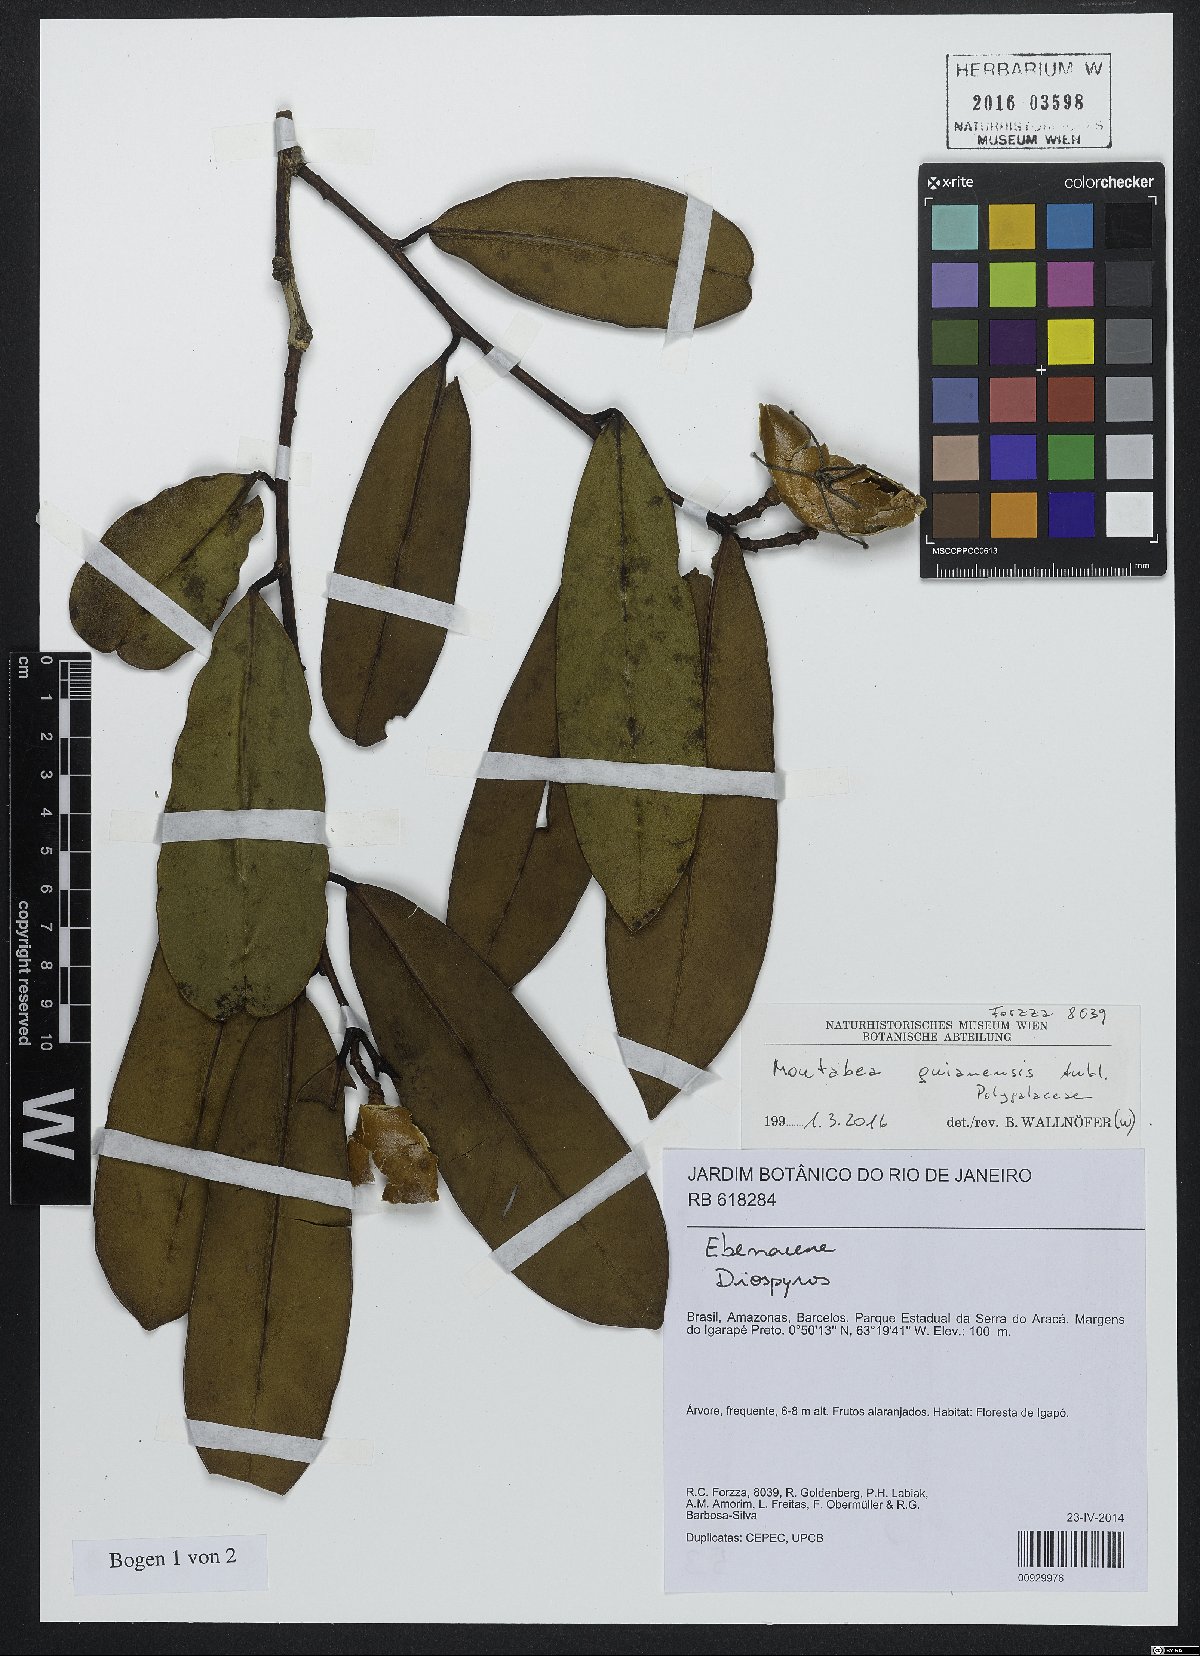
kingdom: Plantae
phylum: Tracheophyta
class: Magnoliopsida
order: Fabales
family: Polygalaceae
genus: Moutabea
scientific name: Moutabea guianensis
